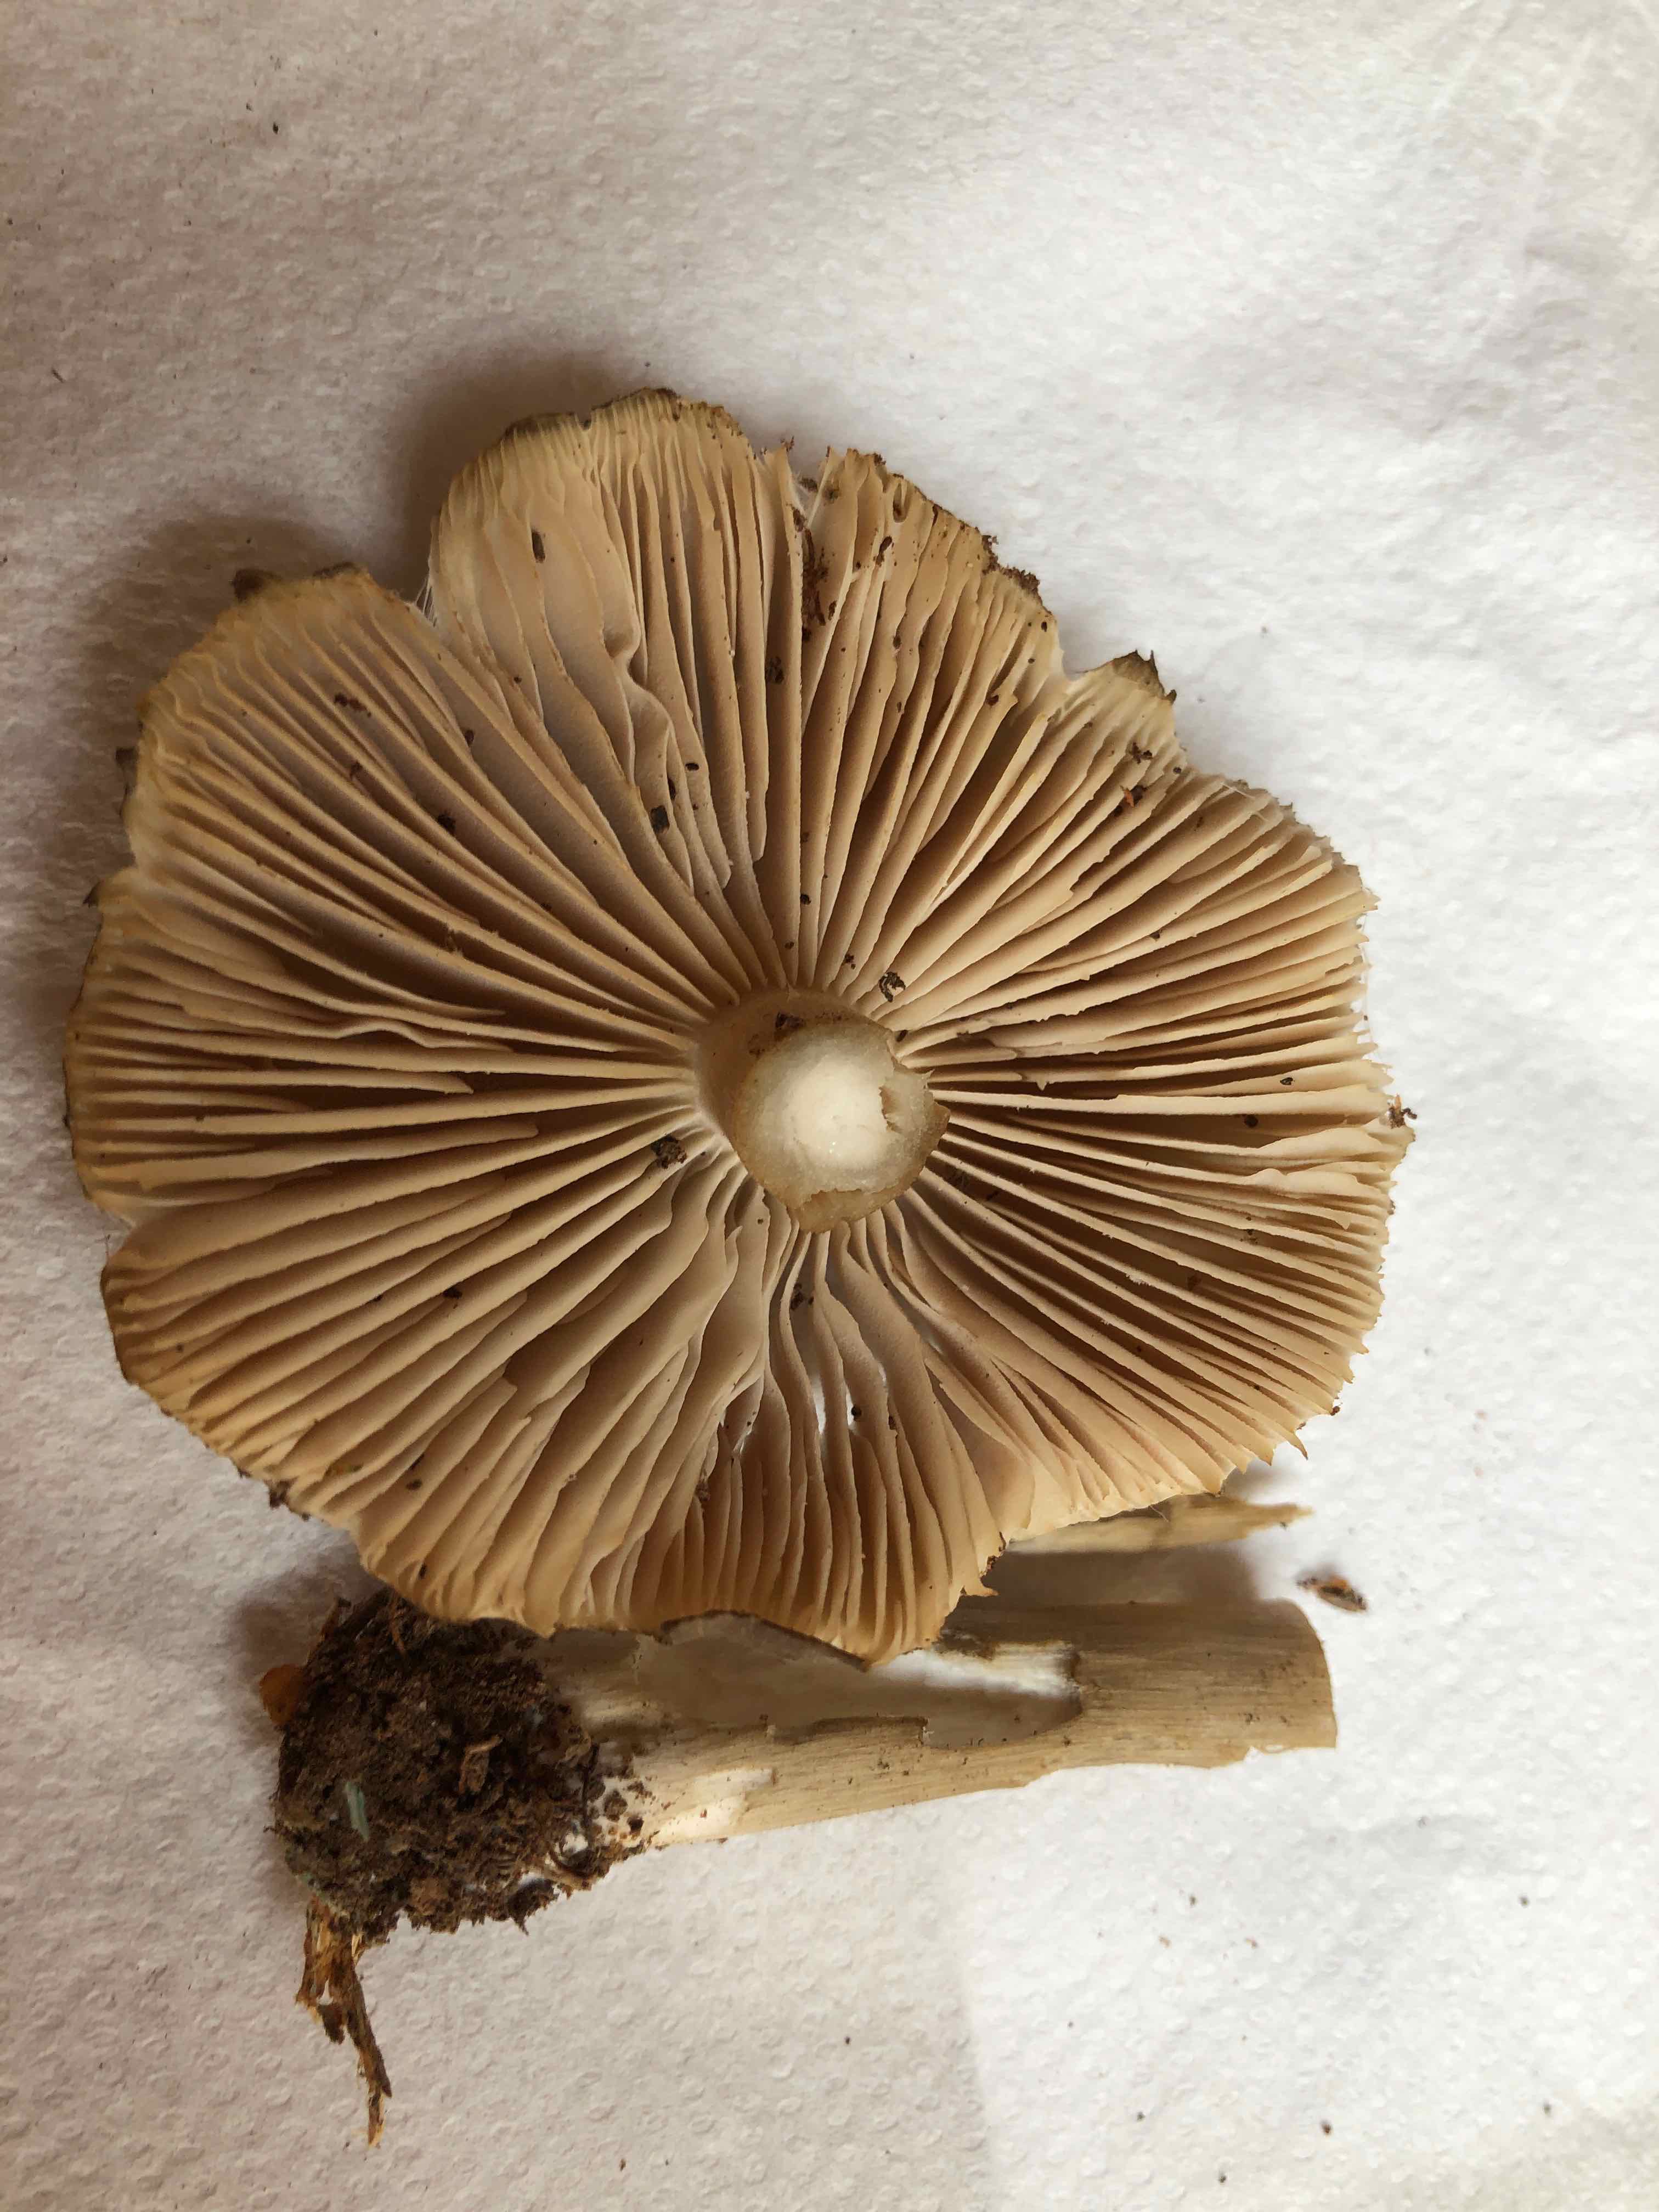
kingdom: Fungi
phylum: Basidiomycota
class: Agaricomycetes
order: Agaricales
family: Tricholomataceae
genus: Megacollybia
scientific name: Megacollybia platyphylla
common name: bredbladet væbnerhat
